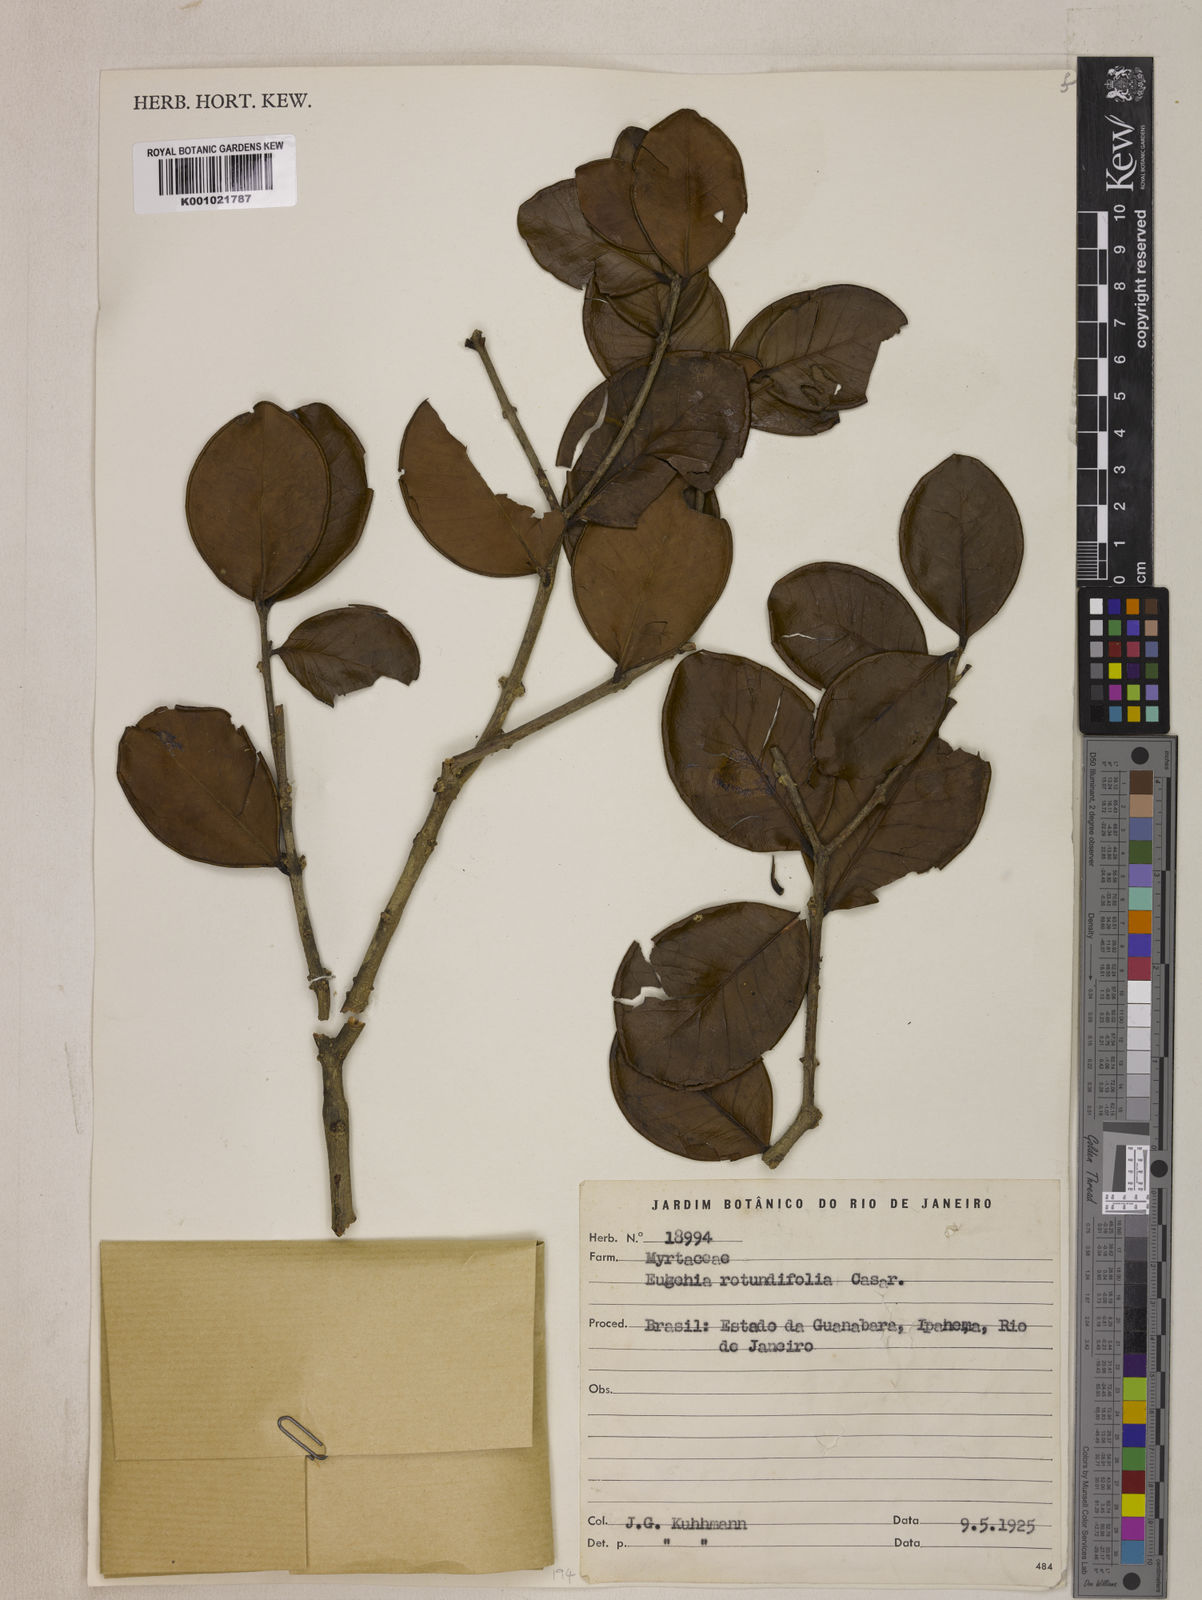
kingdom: Plantae
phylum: Tracheophyta
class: Magnoliopsida
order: Myrtales
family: Myrtaceae
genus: Eugenia
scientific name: Eugenia casarettoana
